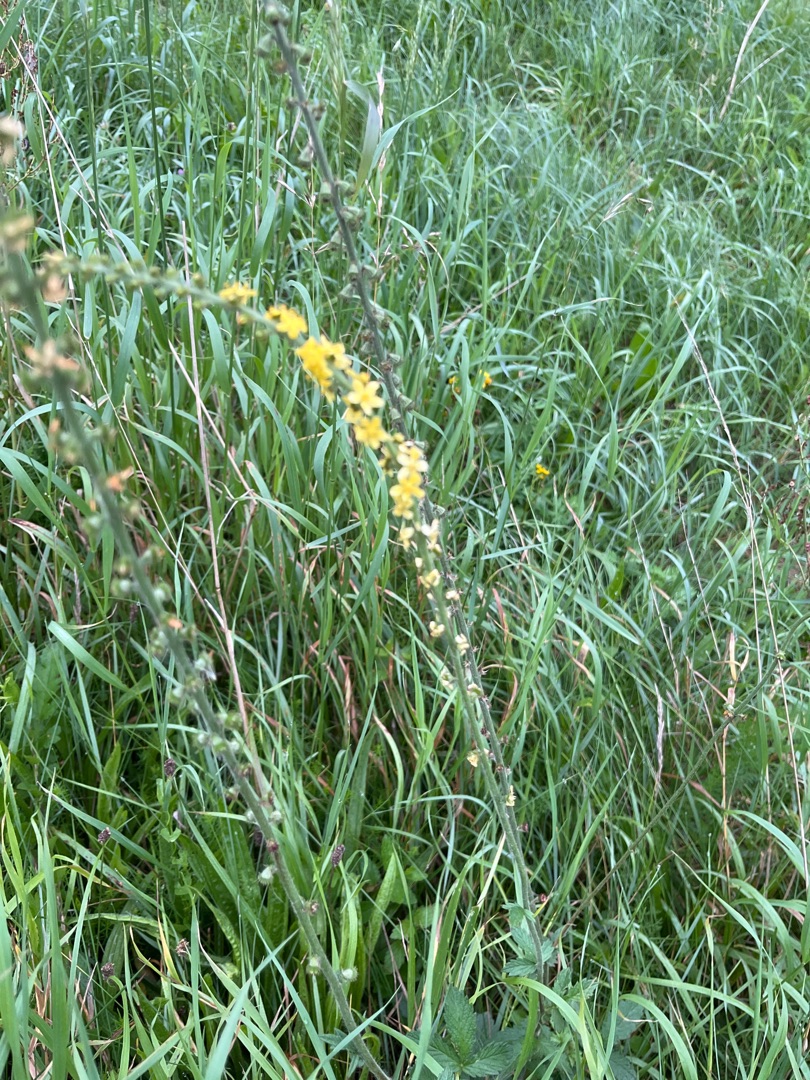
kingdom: Plantae
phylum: Tracheophyta
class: Magnoliopsida
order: Rosales
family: Rosaceae
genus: Agrimonia
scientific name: Agrimonia eupatoria
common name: Almindelig agermåne
